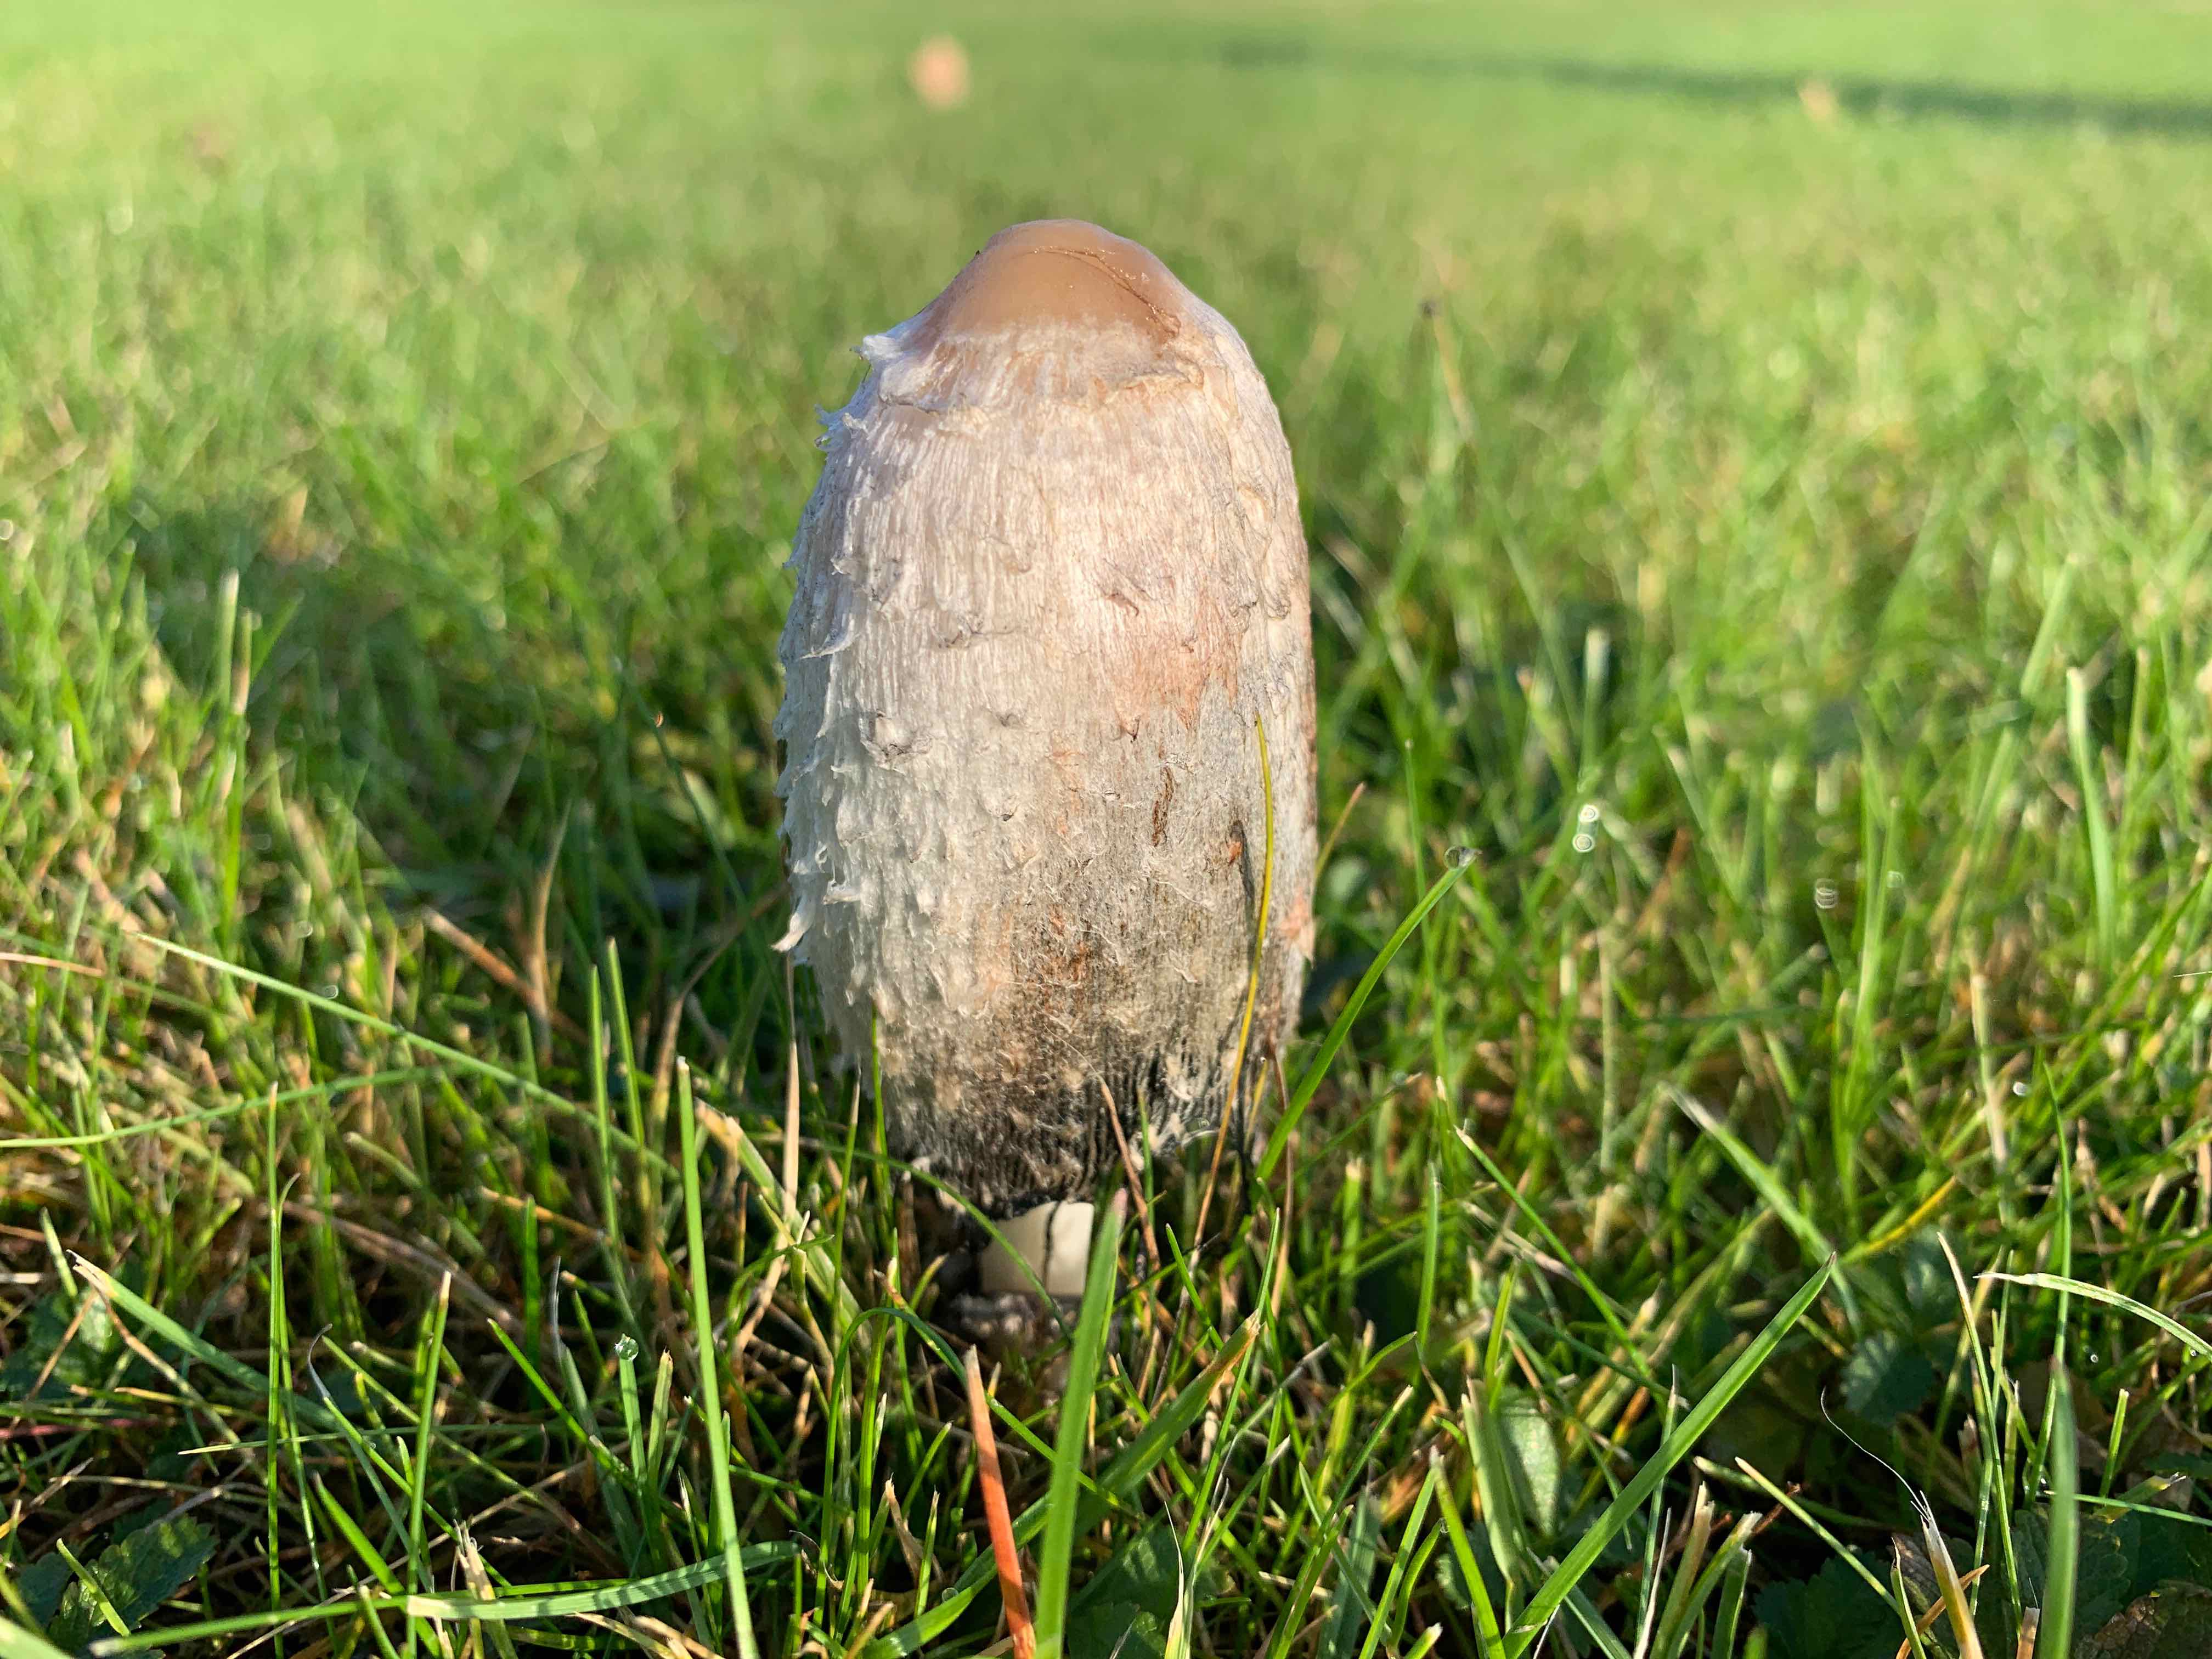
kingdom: Fungi
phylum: Basidiomycota
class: Agaricomycetes
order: Agaricales
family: Agaricaceae
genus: Coprinus
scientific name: Coprinus comatus
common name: stor parykhat
